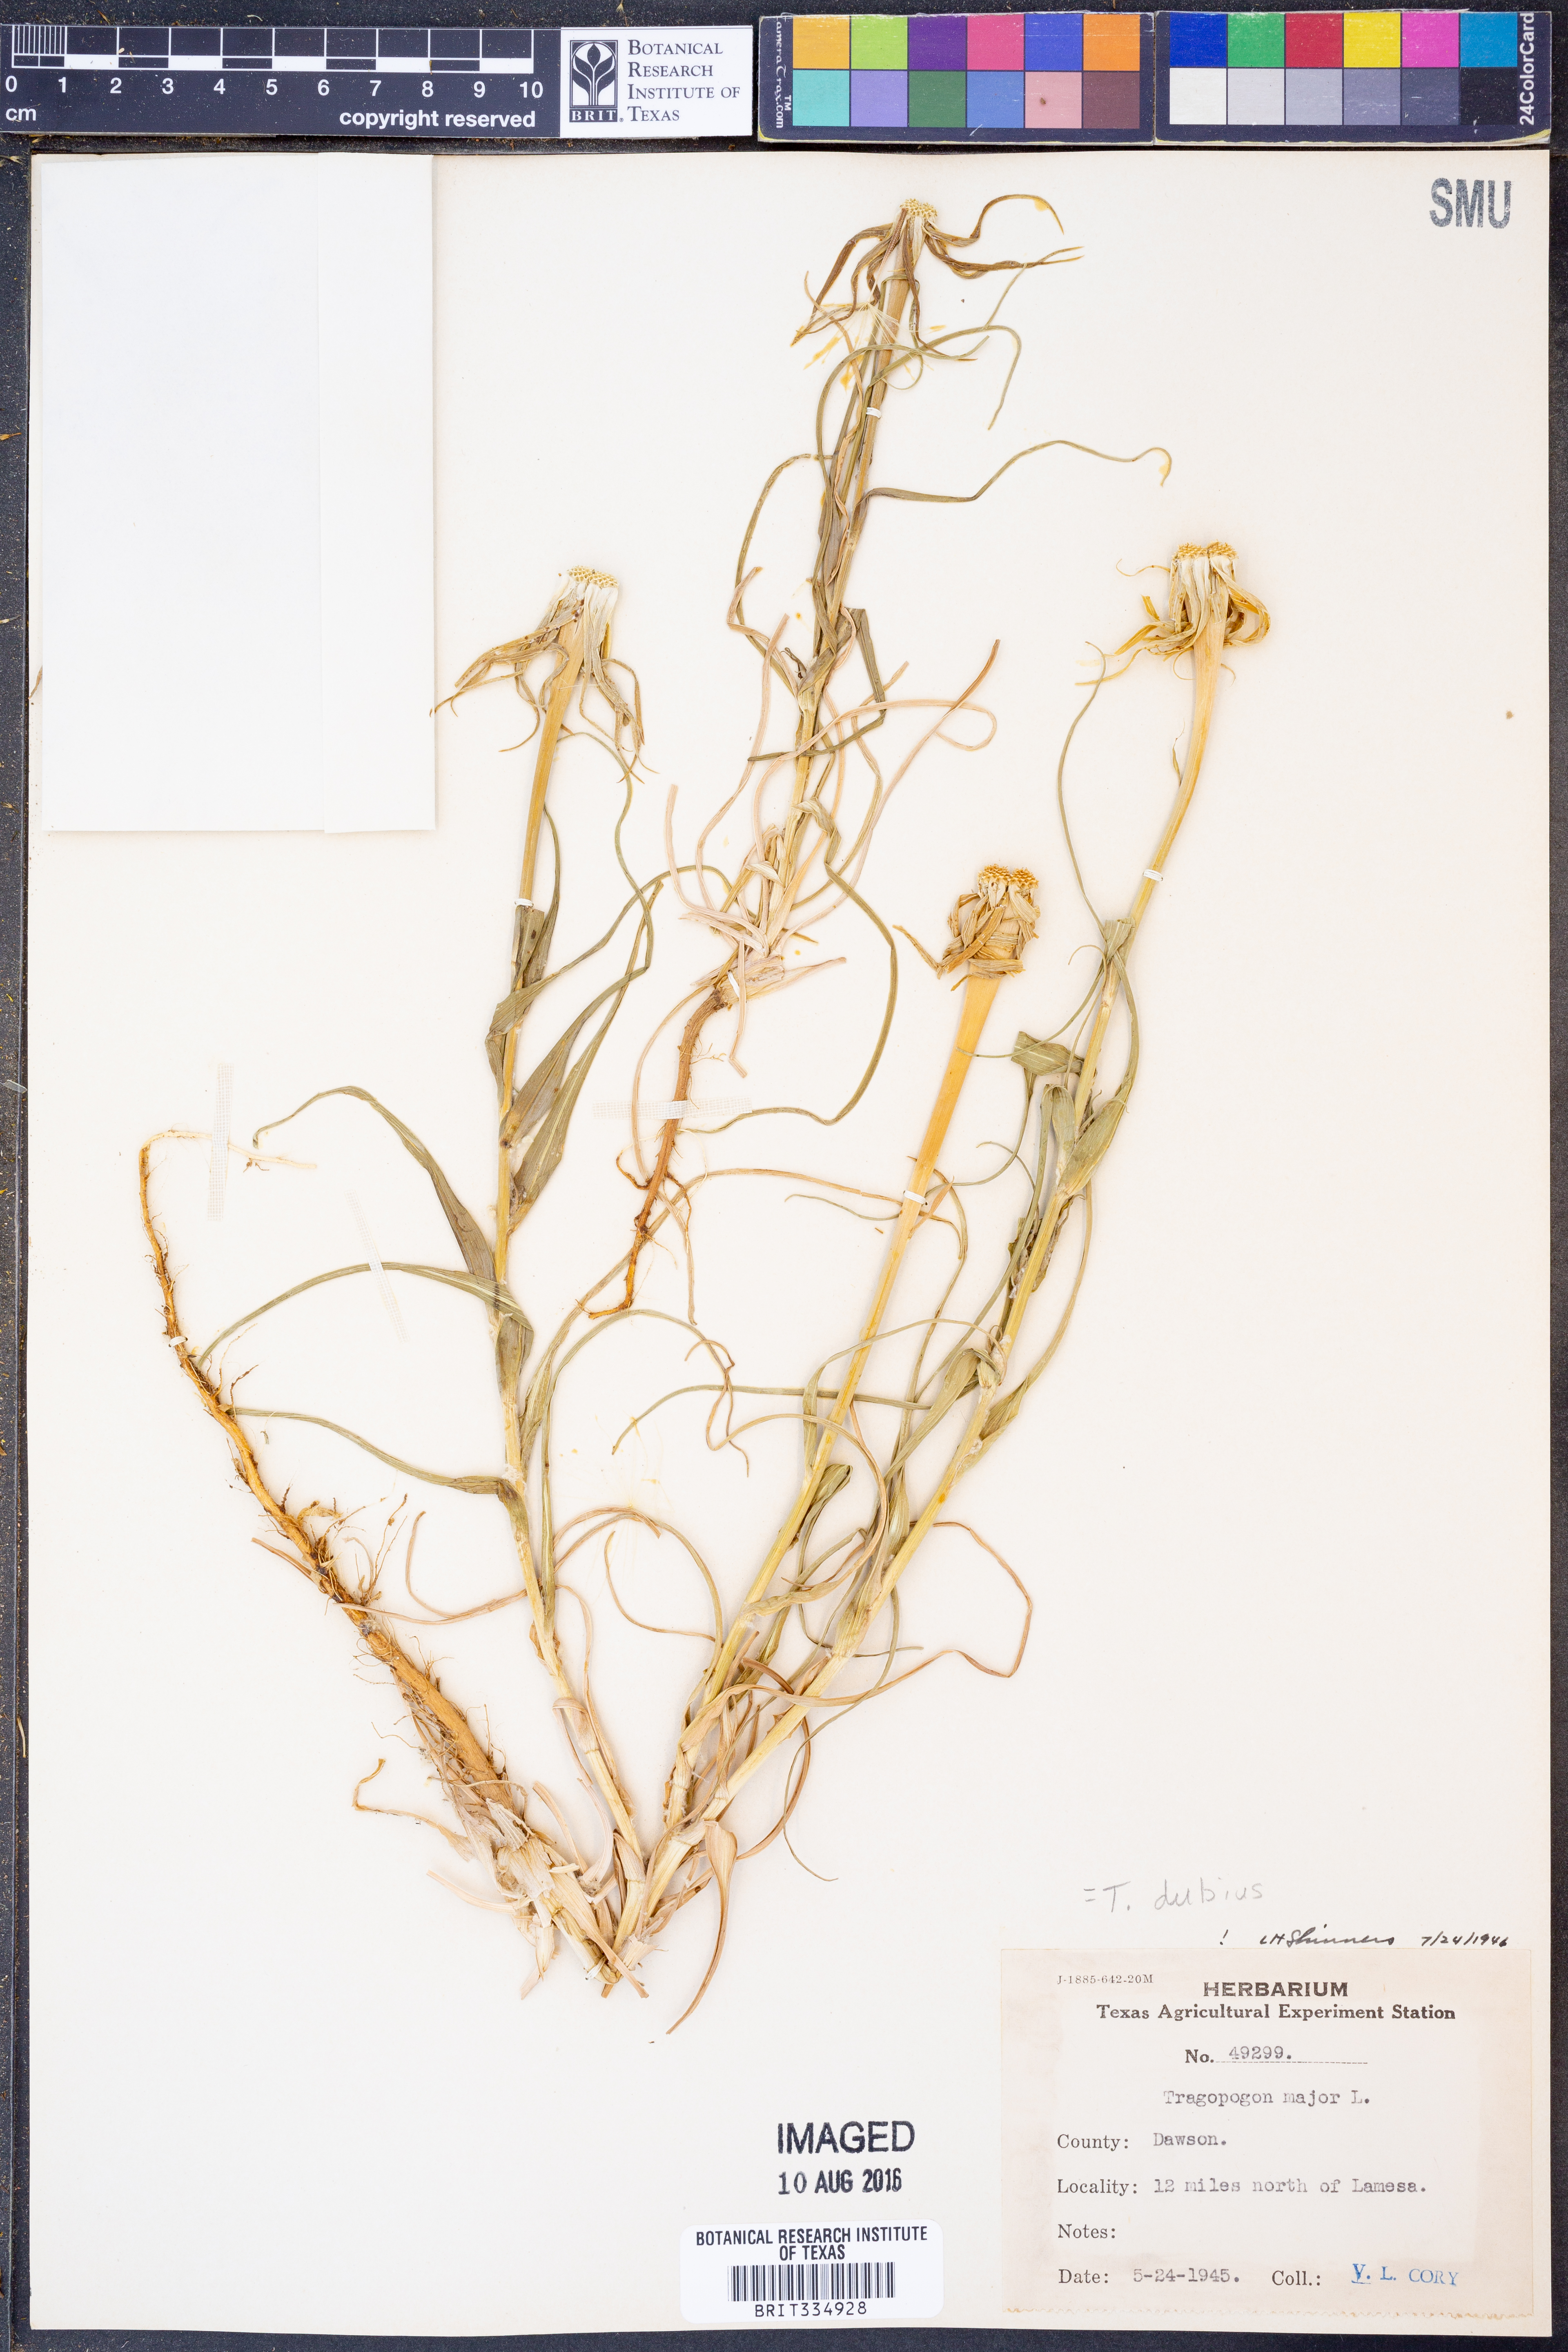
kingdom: Plantae
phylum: Tracheophyta
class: Magnoliopsida
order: Asterales
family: Asteraceae
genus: Tragopogon
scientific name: Tragopogon dubius
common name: Yellow salsify
